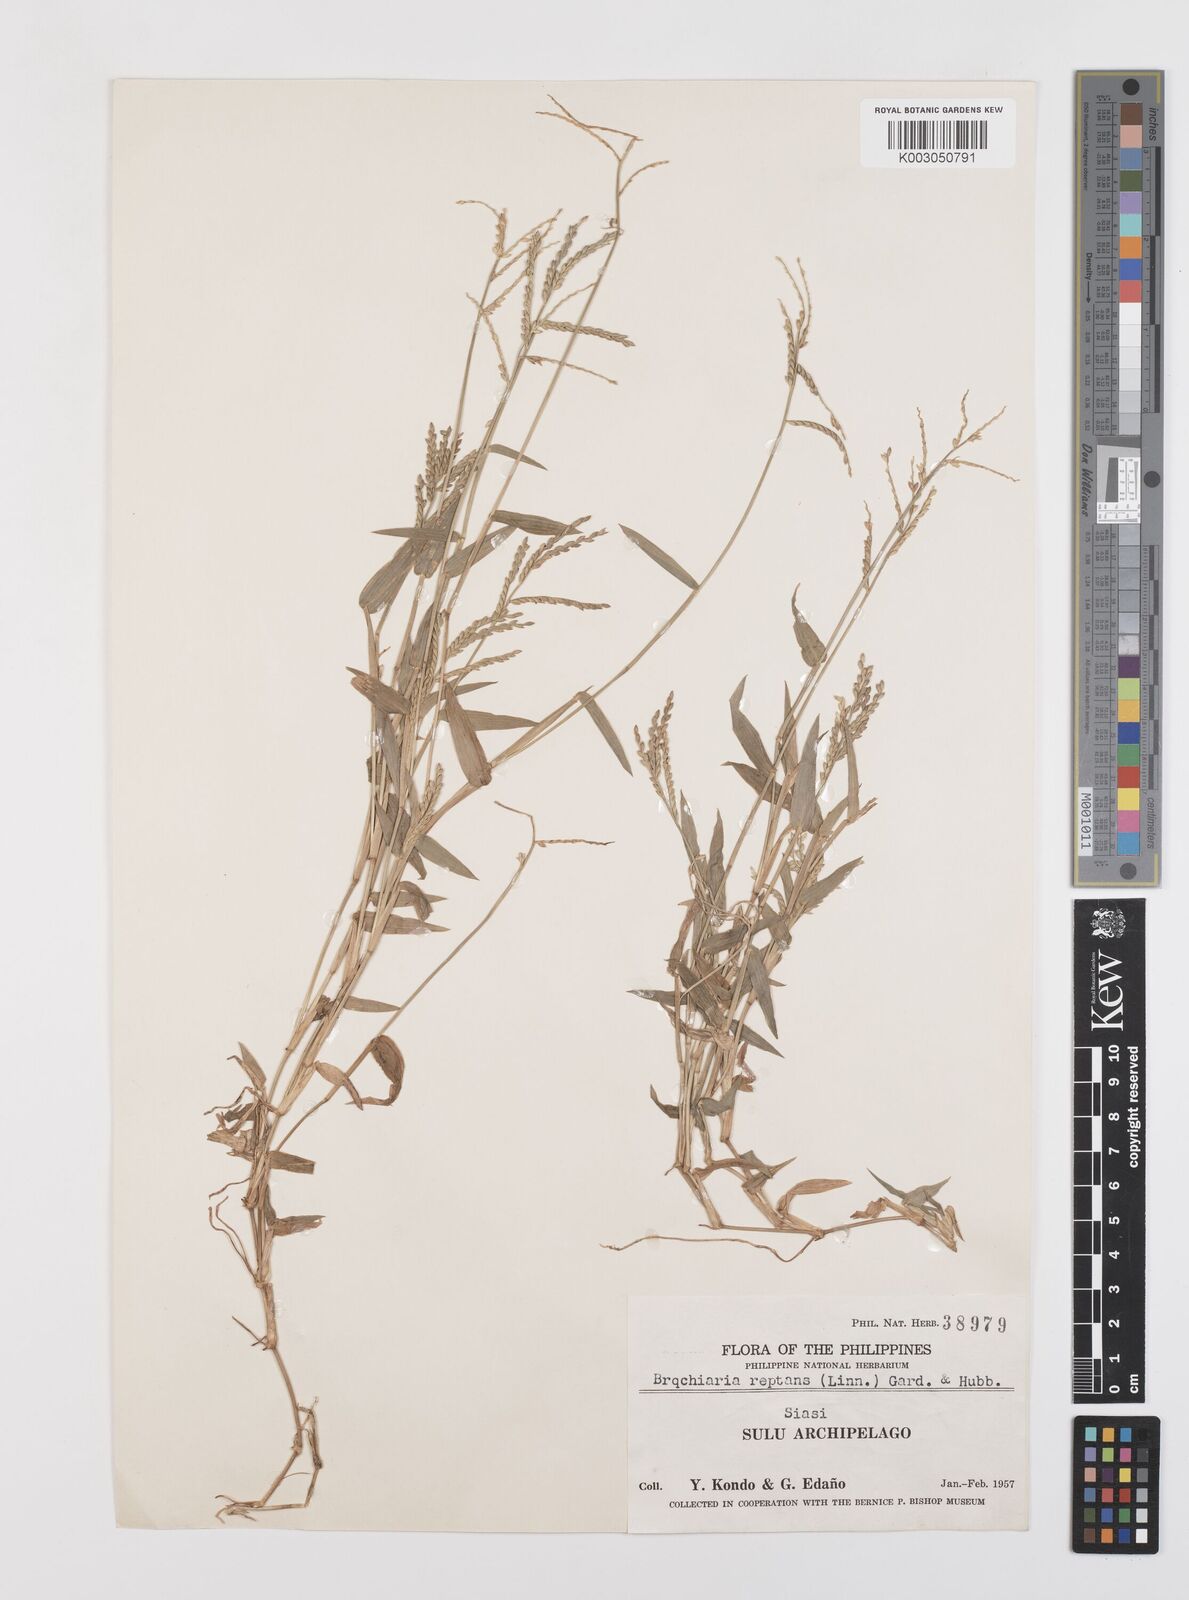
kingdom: Plantae
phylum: Tracheophyta
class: Liliopsida
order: Poales
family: Poaceae
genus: Urochloa
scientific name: Urochloa subquadripara
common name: Armgrass millet
